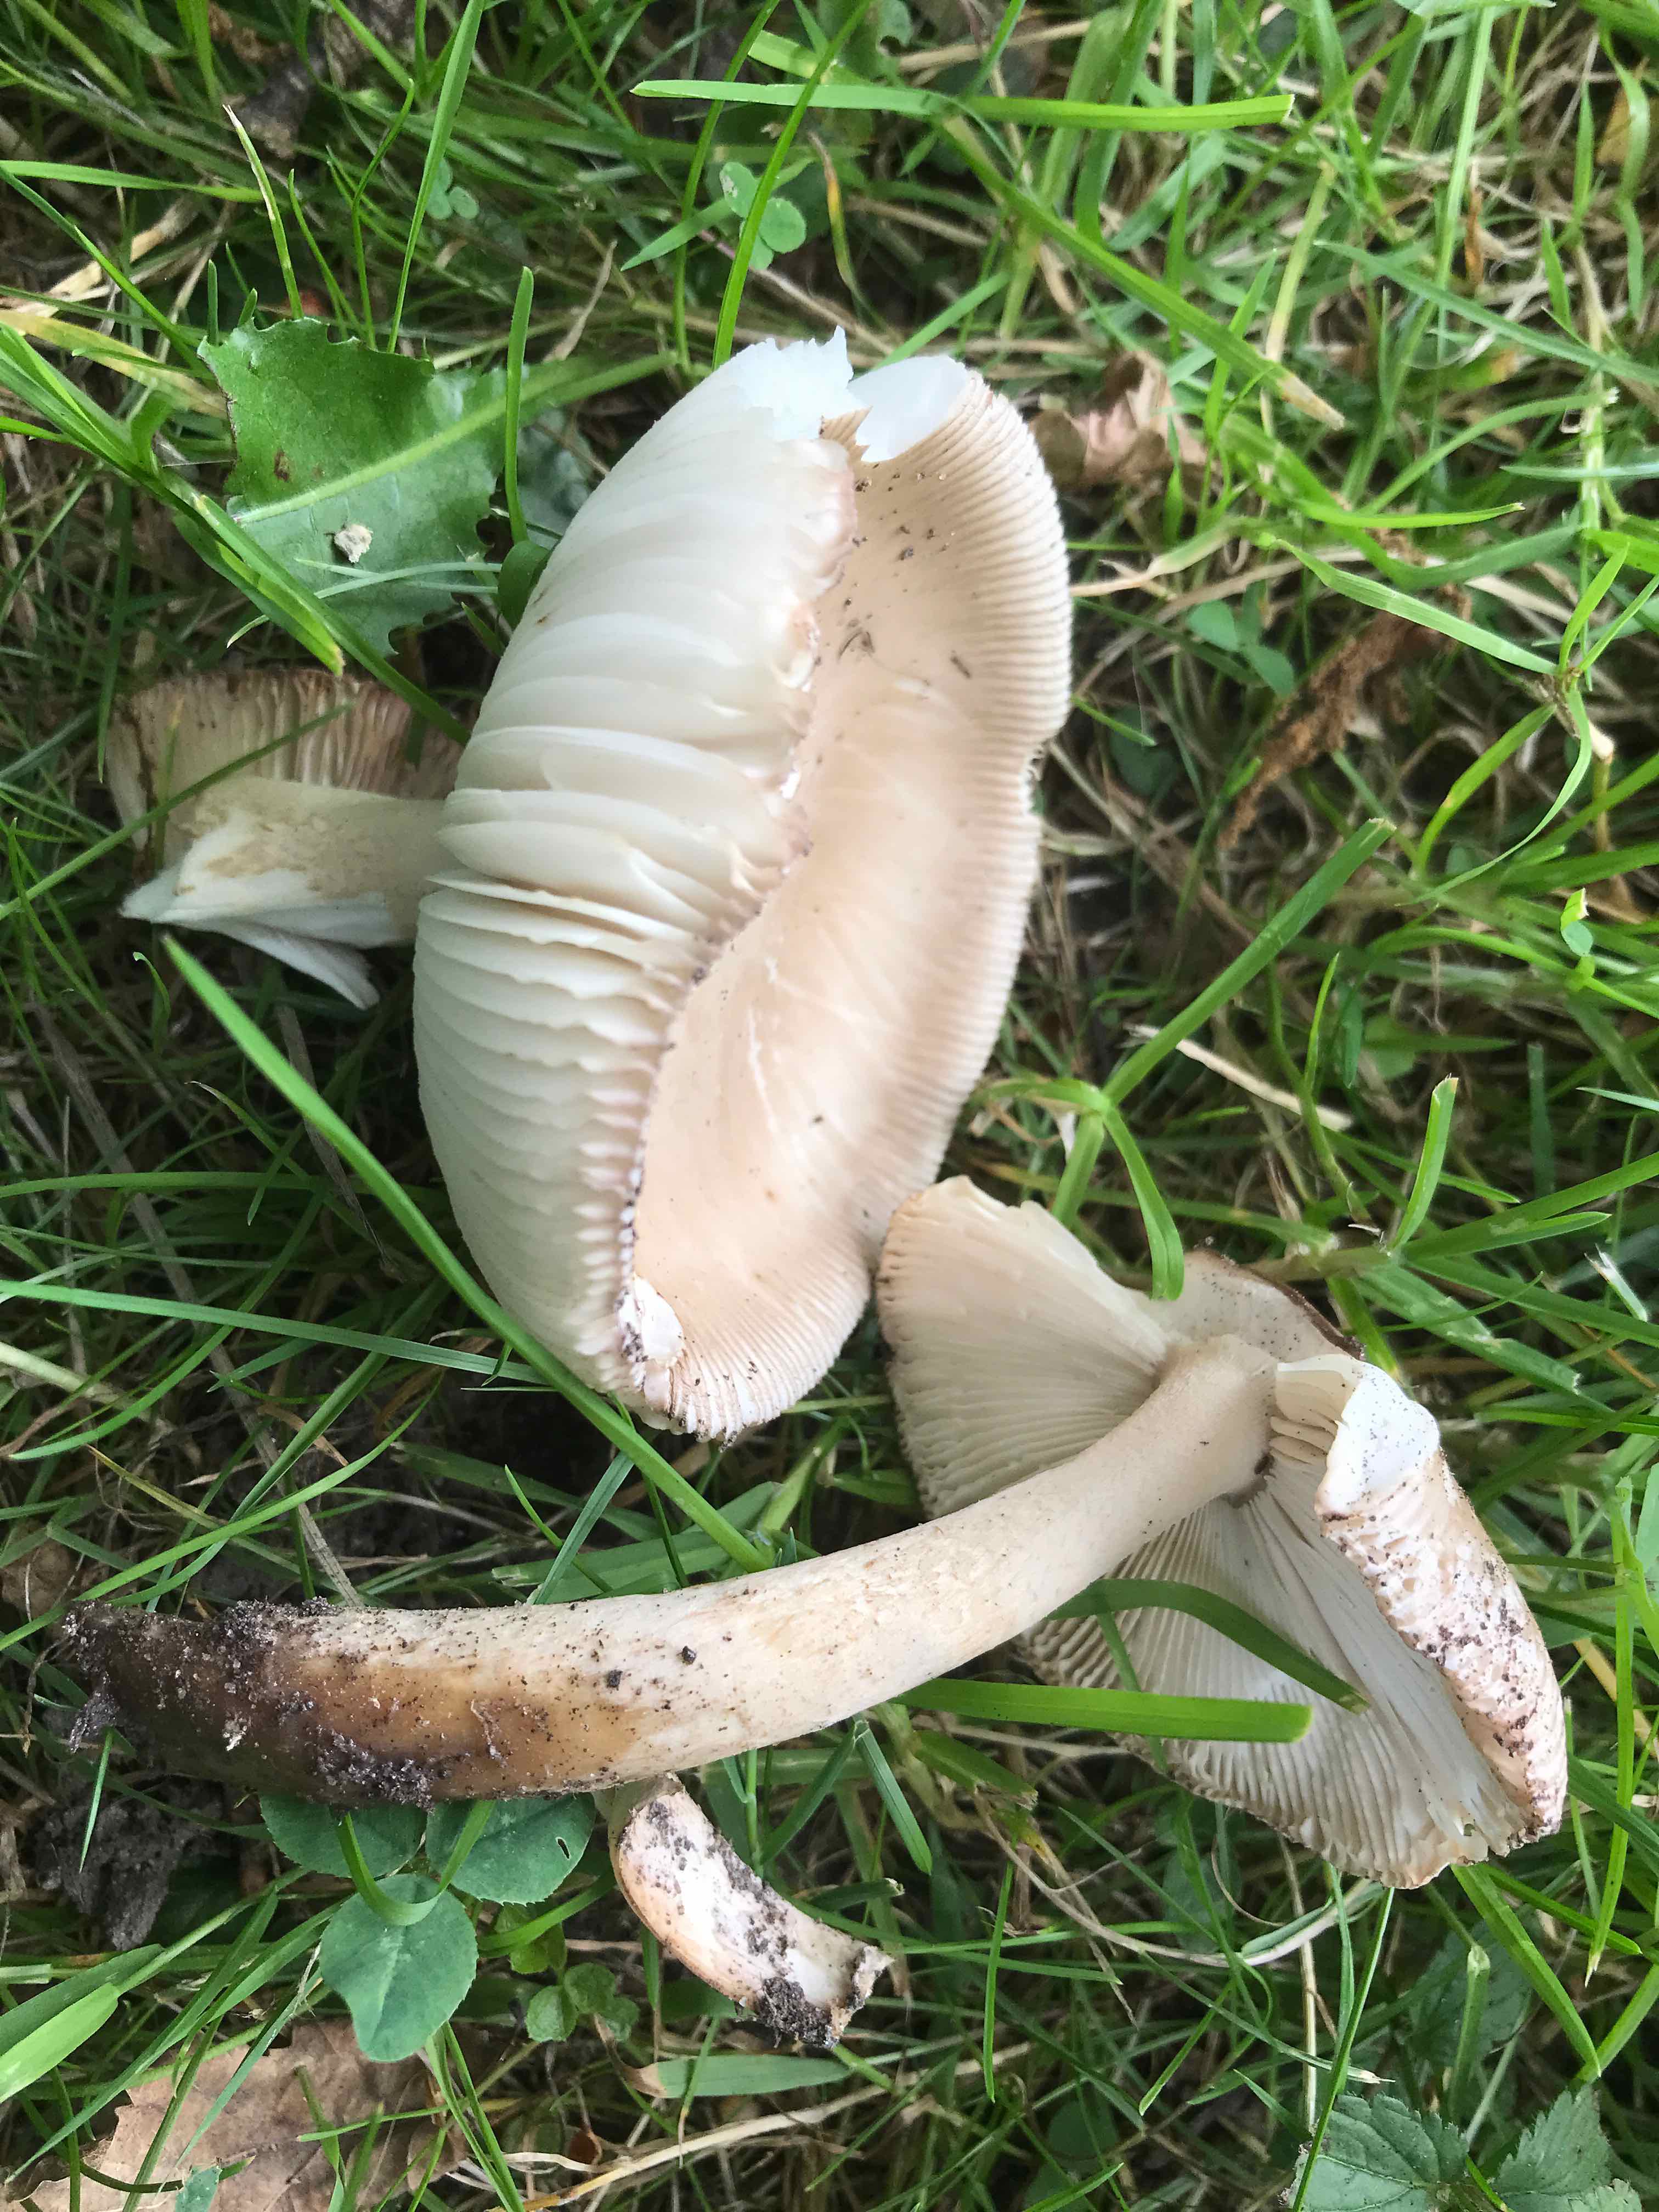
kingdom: Fungi
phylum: Basidiomycota
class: Agaricomycetes
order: Agaricales
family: Amanitaceae
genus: Amanita
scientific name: Amanita
